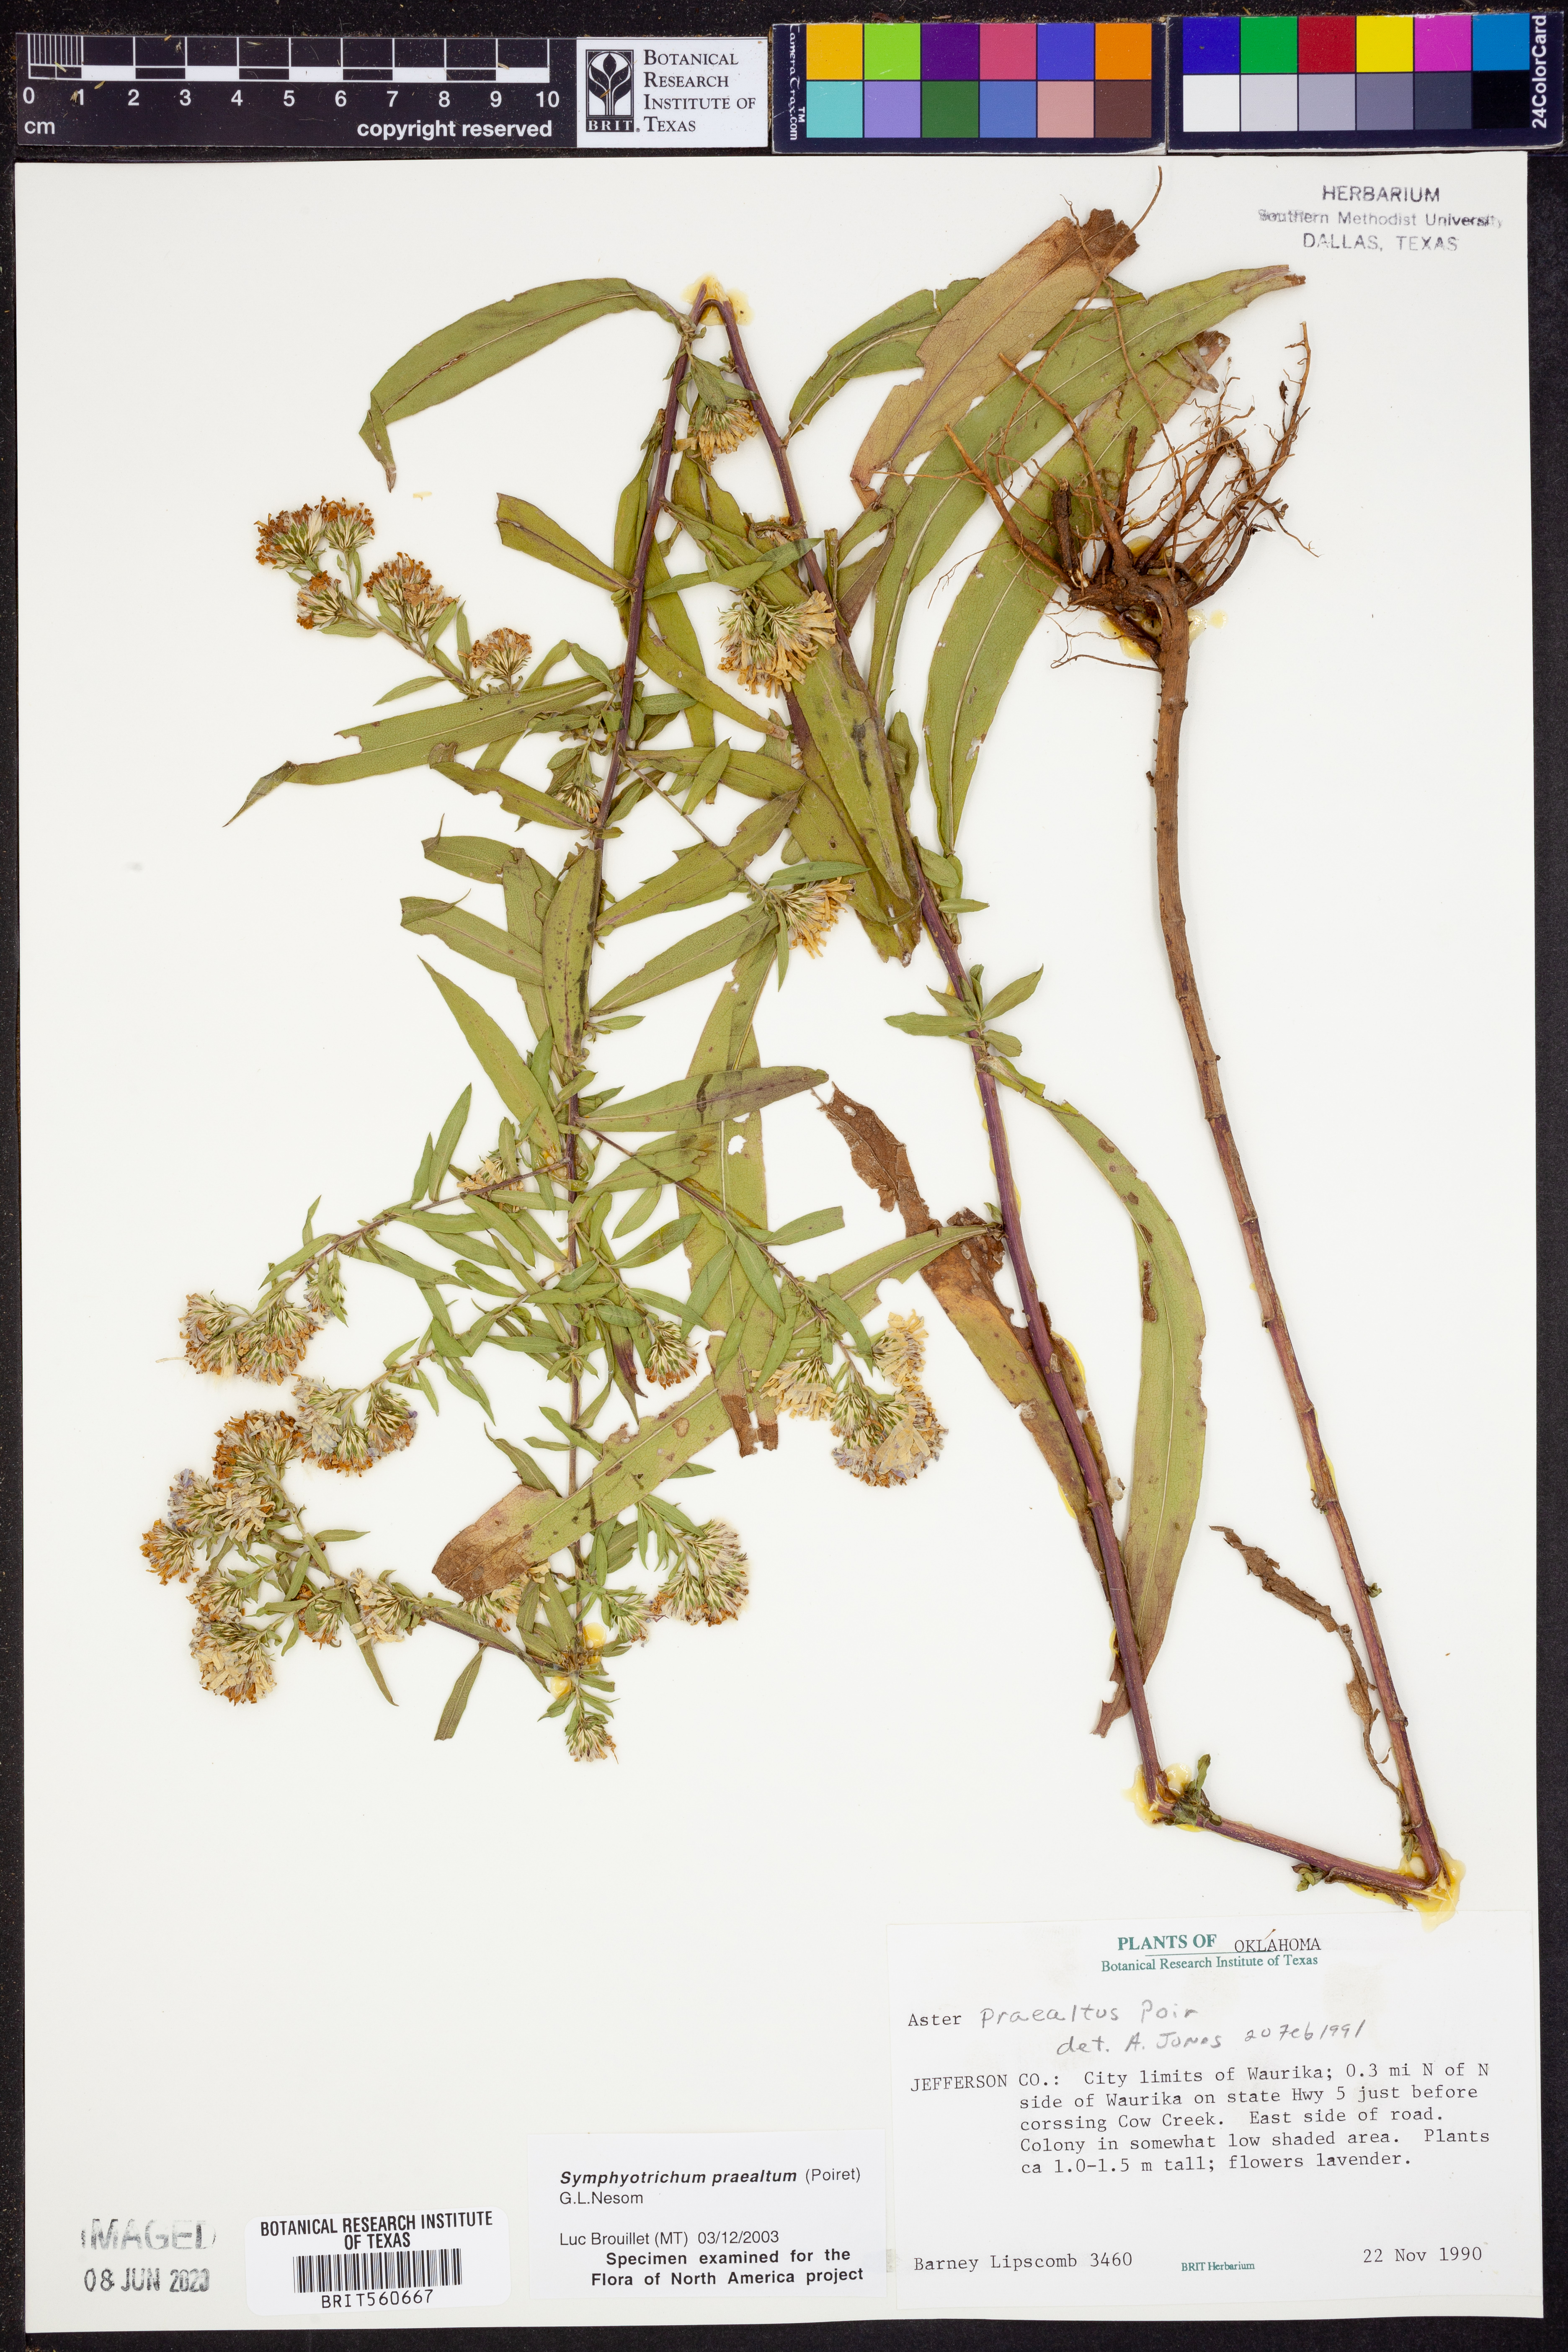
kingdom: Plantae
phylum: Tracheophyta
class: Magnoliopsida
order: Asterales
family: Asteraceae
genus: Symphyotrichum
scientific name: Symphyotrichum praealtum
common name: Willow aster
